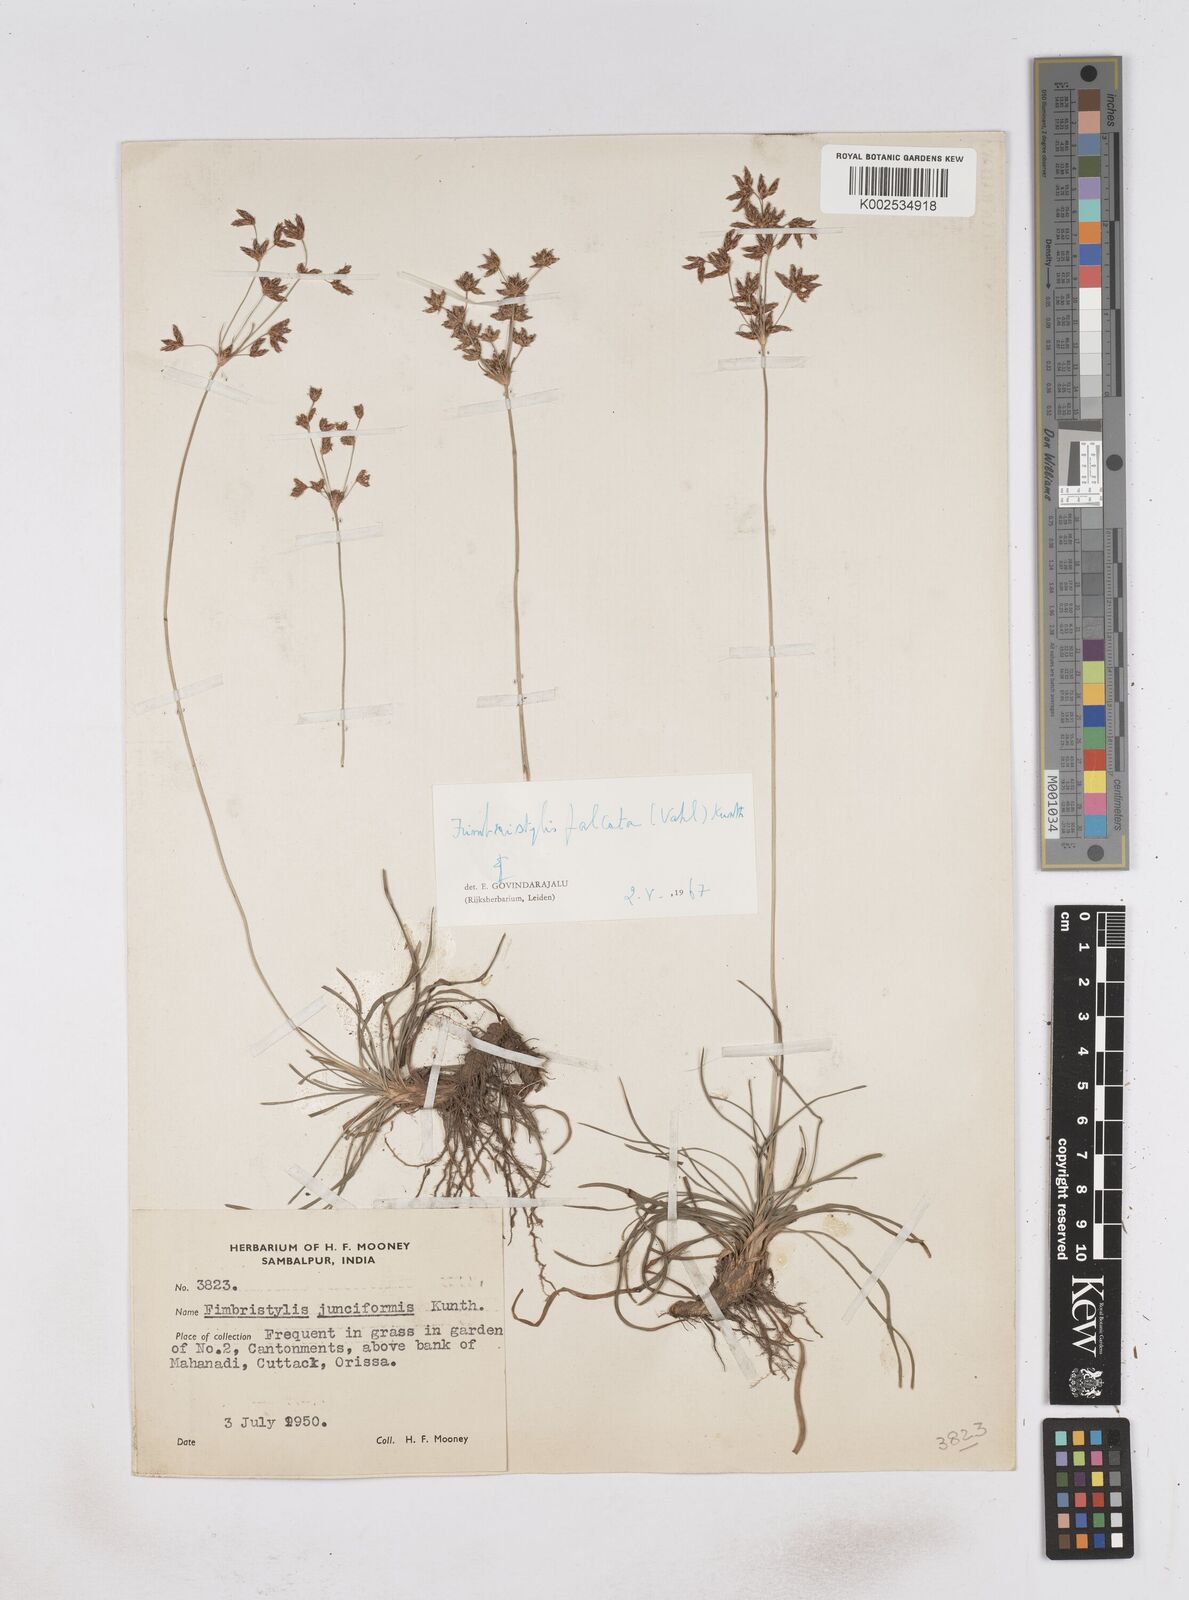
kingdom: Plantae
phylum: Tracheophyta
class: Liliopsida
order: Poales
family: Cyperaceae
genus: Fimbristylis
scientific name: Fimbristylis falcata
